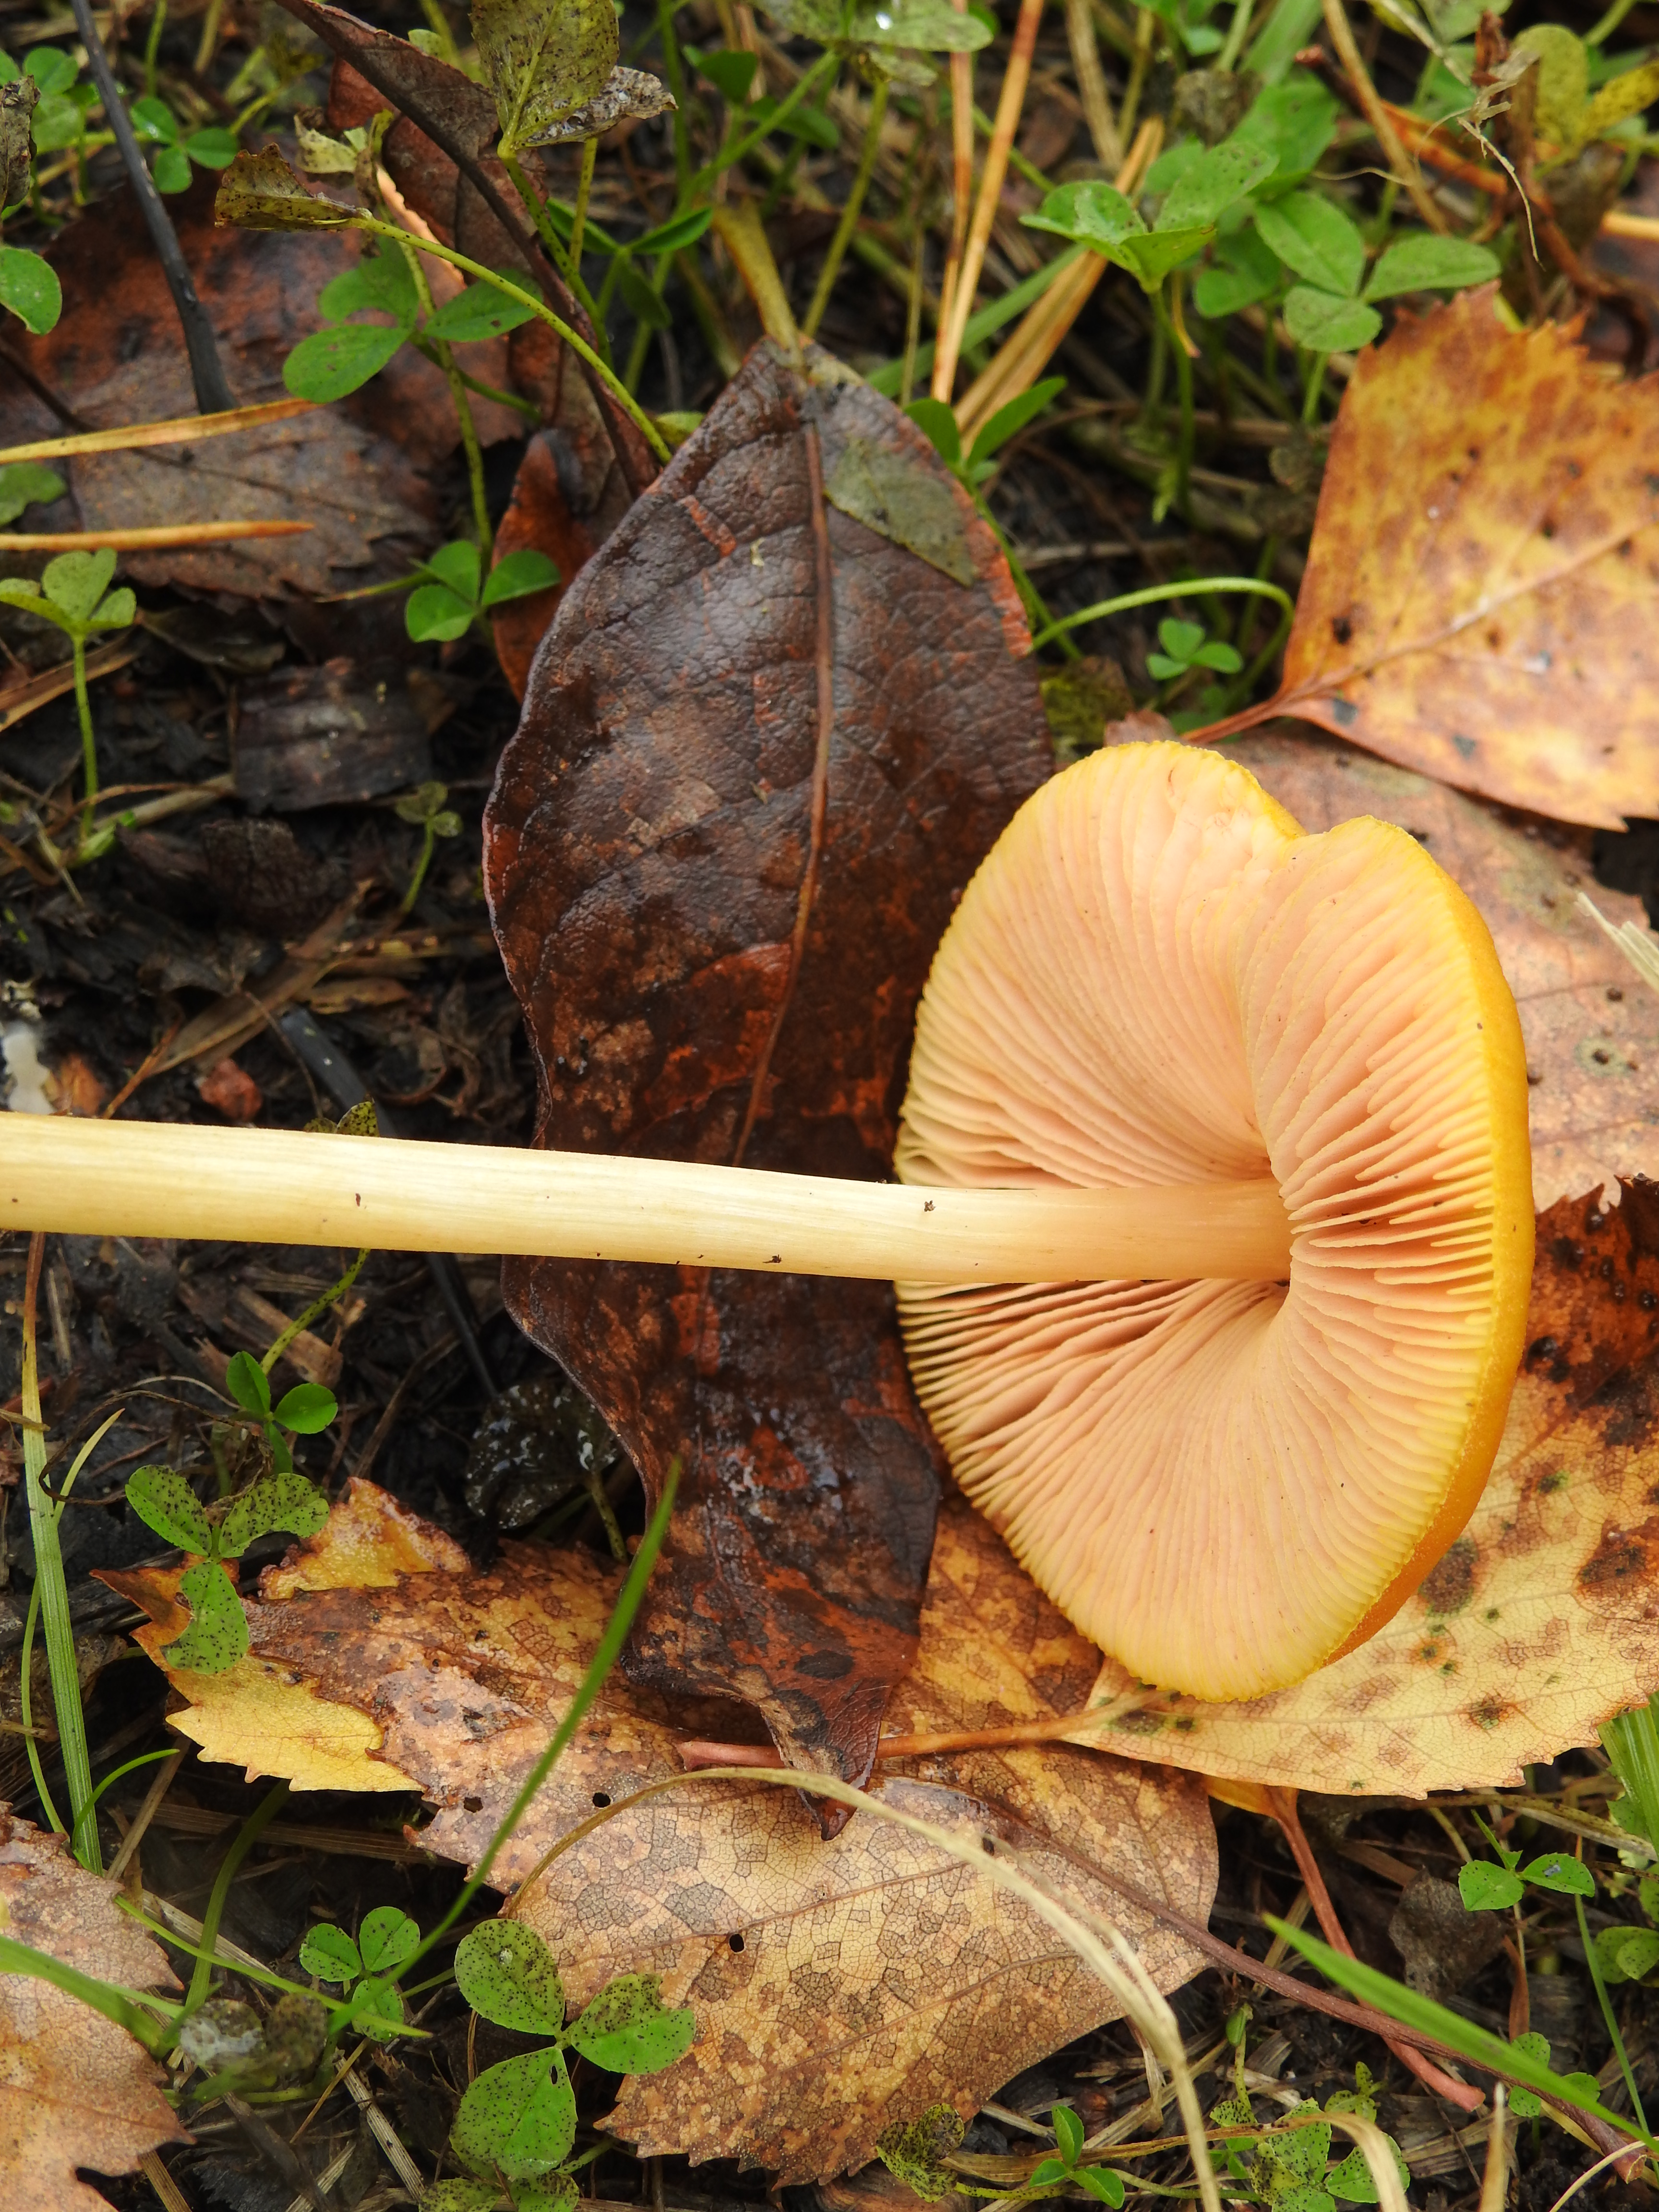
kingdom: Fungi
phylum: Basidiomycota
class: Agaricomycetes
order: Agaricales
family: Pluteaceae
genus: Pluteus
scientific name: Pluteus leoninus
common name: Lion shield
